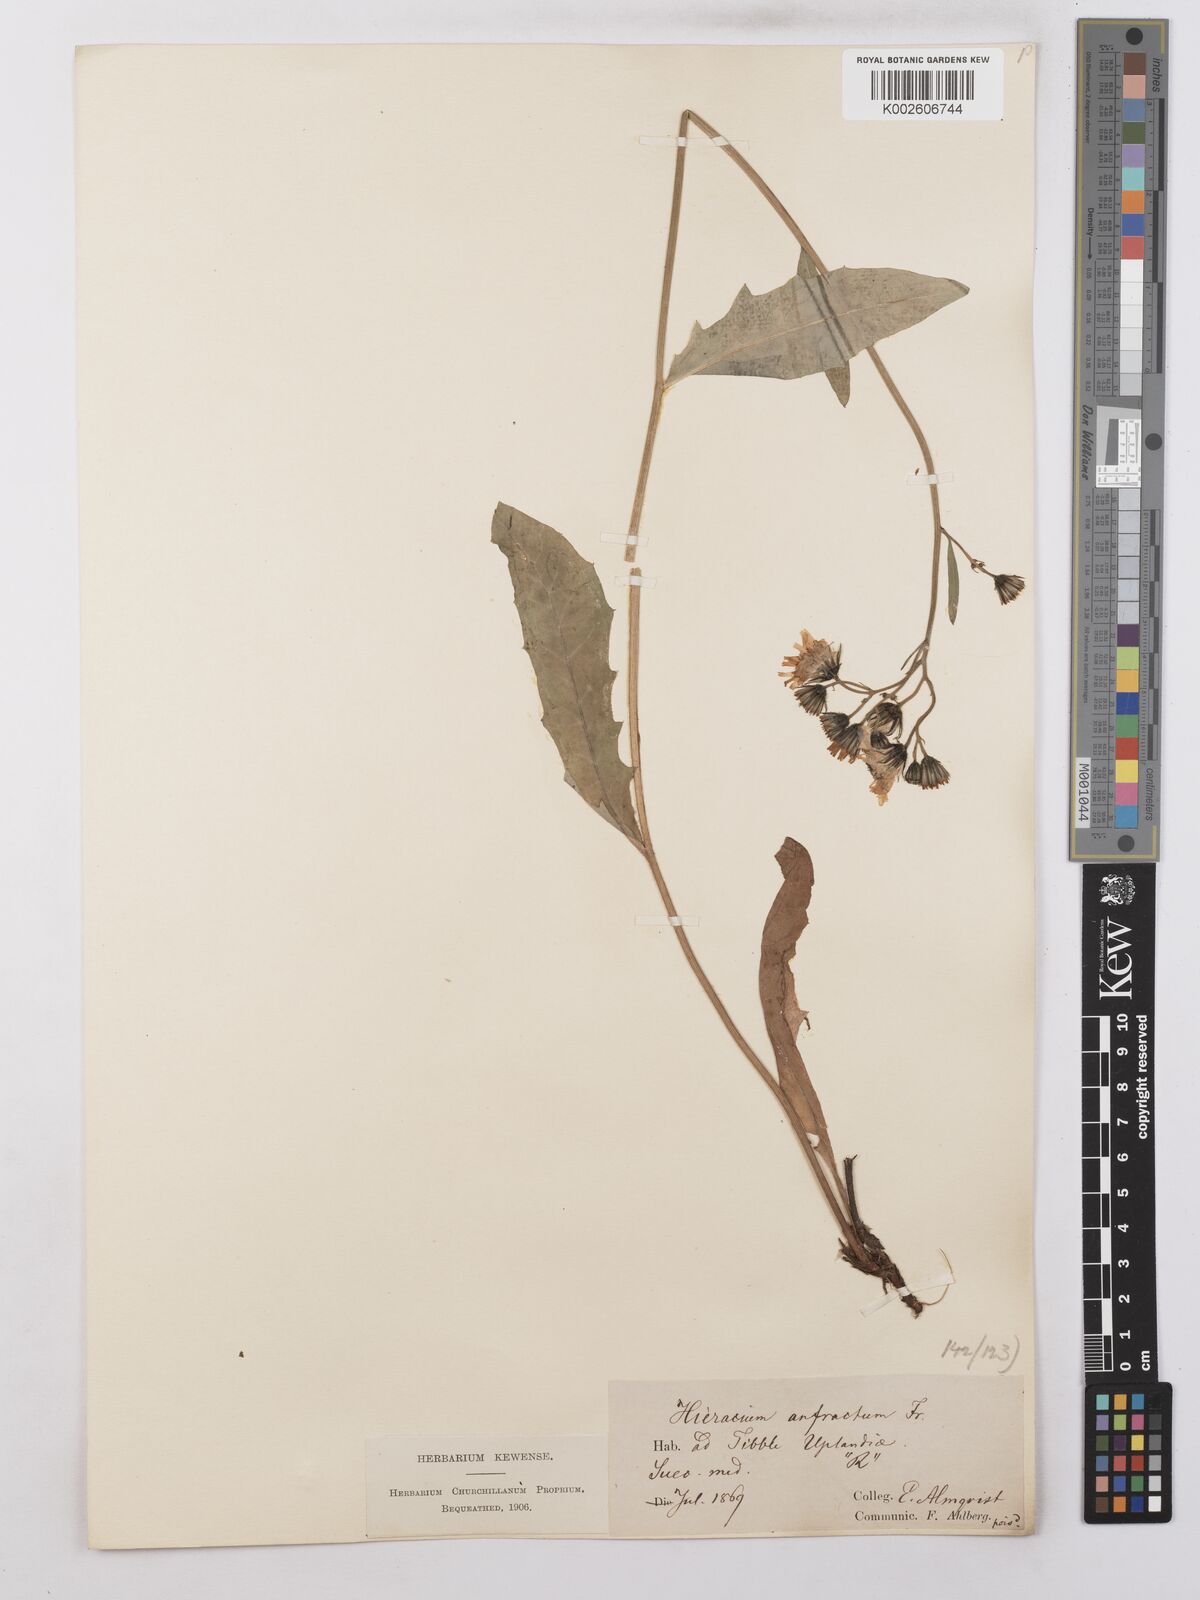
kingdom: Plantae
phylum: Tracheophyta
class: Magnoliopsida
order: Asterales
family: Asteraceae
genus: Hieracium
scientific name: Hieracium lachenalii
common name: Common hawkweed
